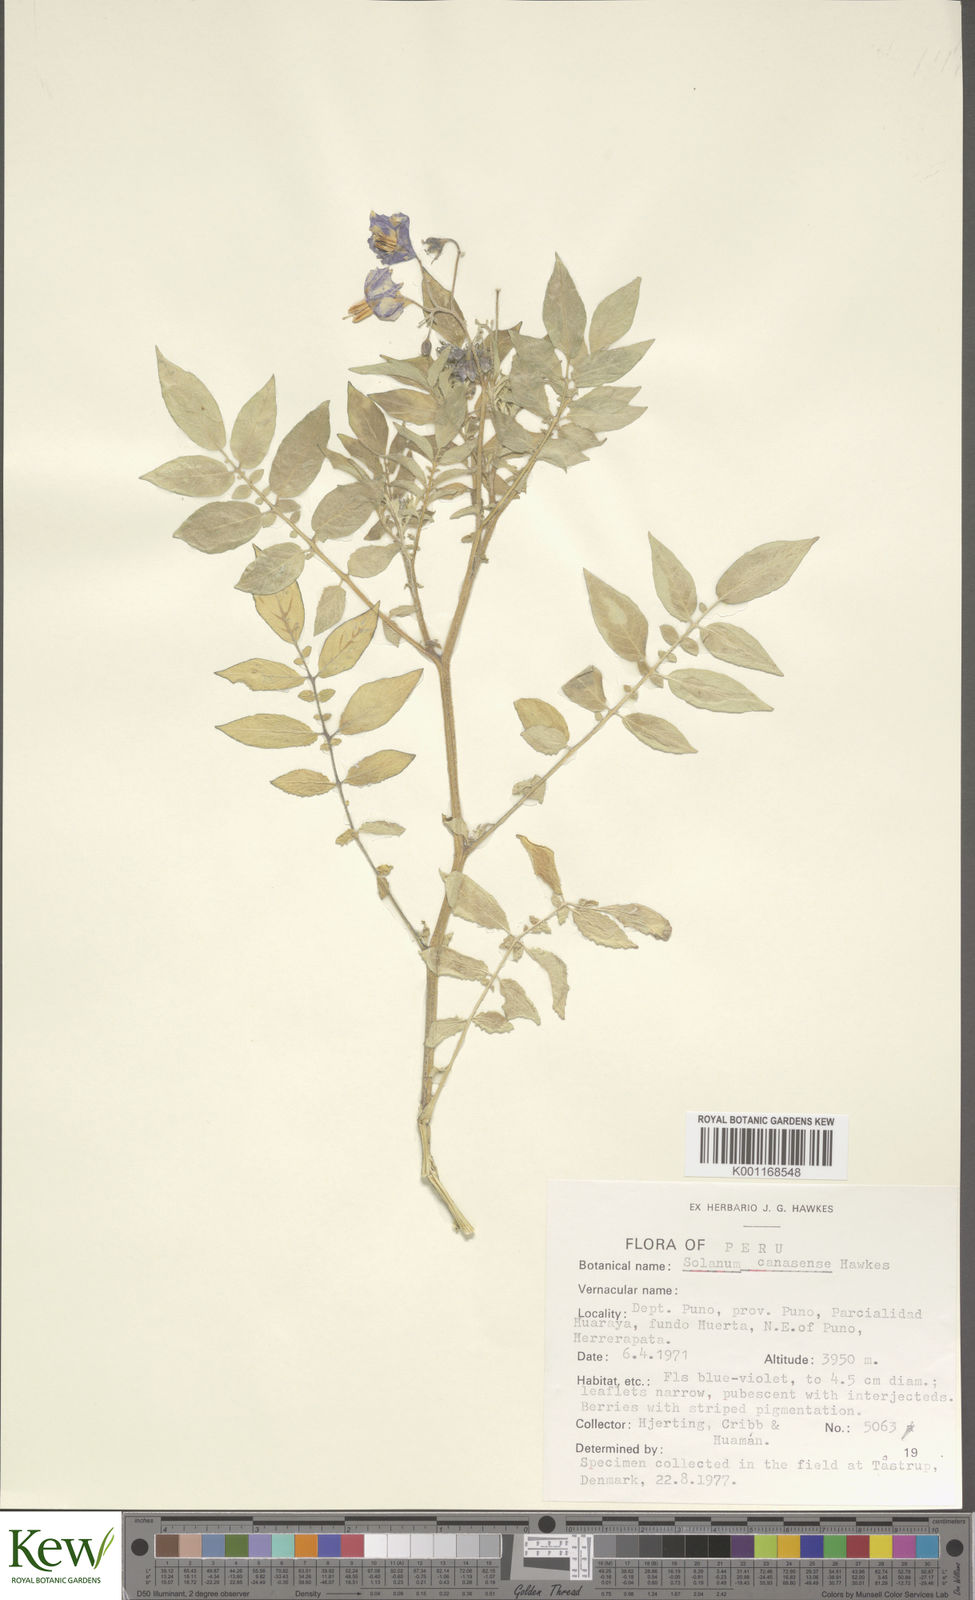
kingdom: Plantae
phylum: Tracheophyta
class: Magnoliopsida
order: Solanales
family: Solanaceae
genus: Solanum
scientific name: Solanum candolleanum
